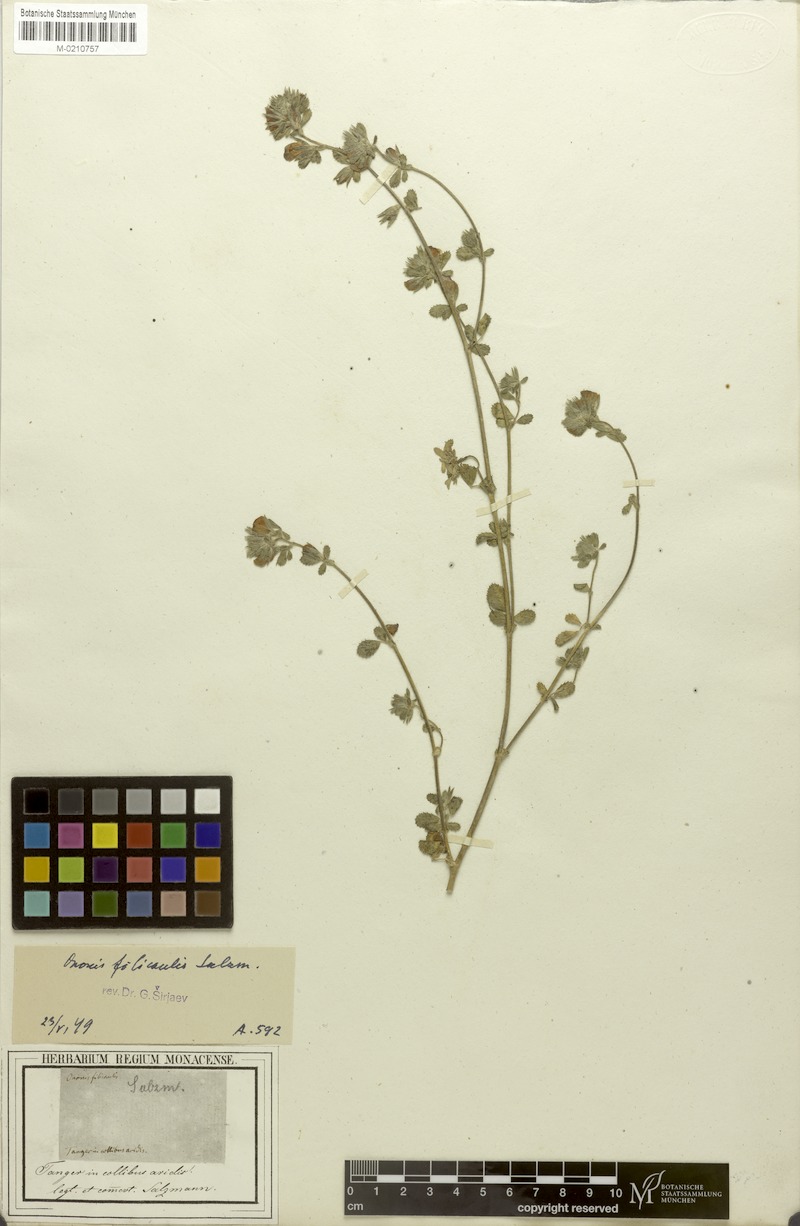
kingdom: Plantae
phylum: Tracheophyta
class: Magnoliopsida
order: Fabales
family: Fabaceae
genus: Ononis
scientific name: Ononis filicaulis
